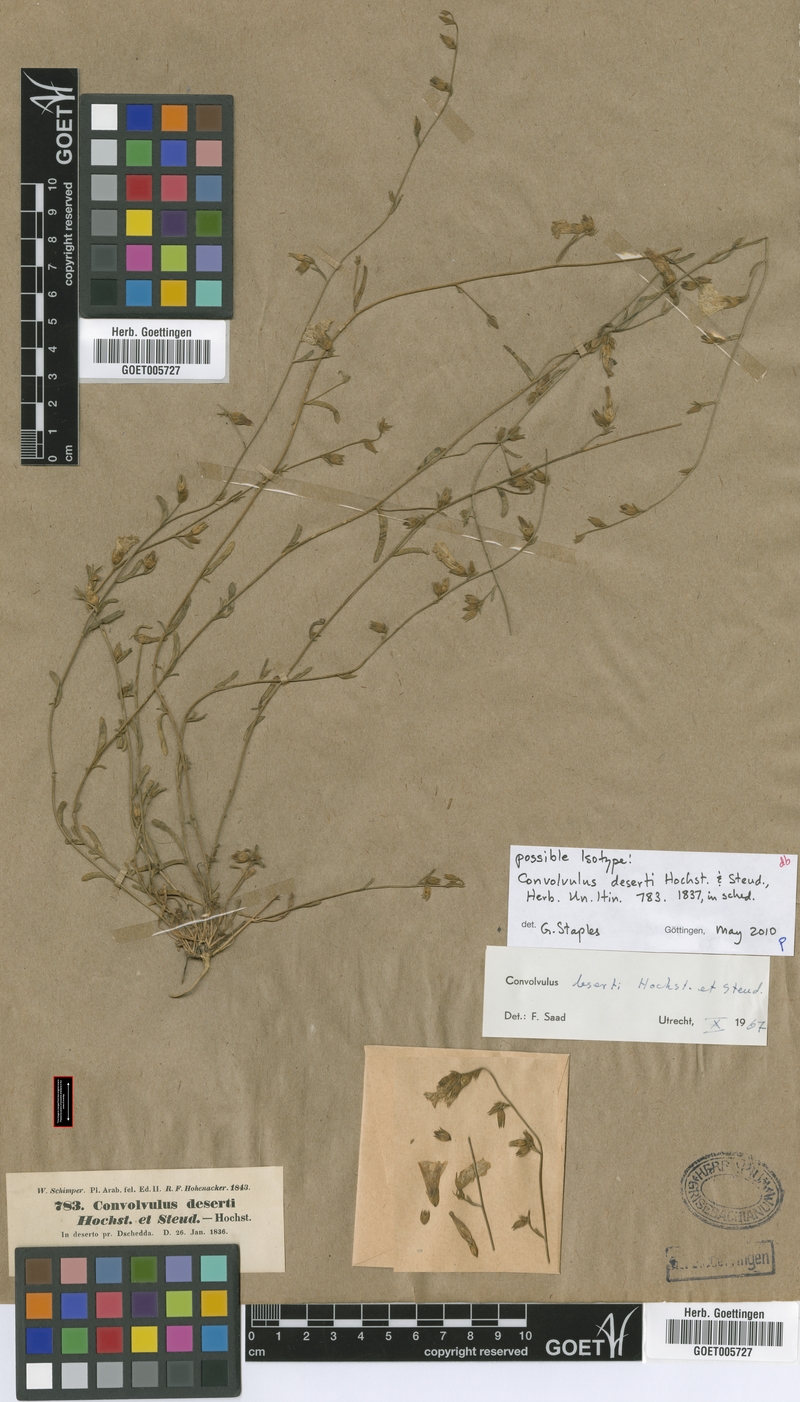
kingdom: Plantae
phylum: Tracheophyta
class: Magnoliopsida
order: Solanales
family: Convolvulaceae
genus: Convolvulus
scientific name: Convolvulus prostratus
